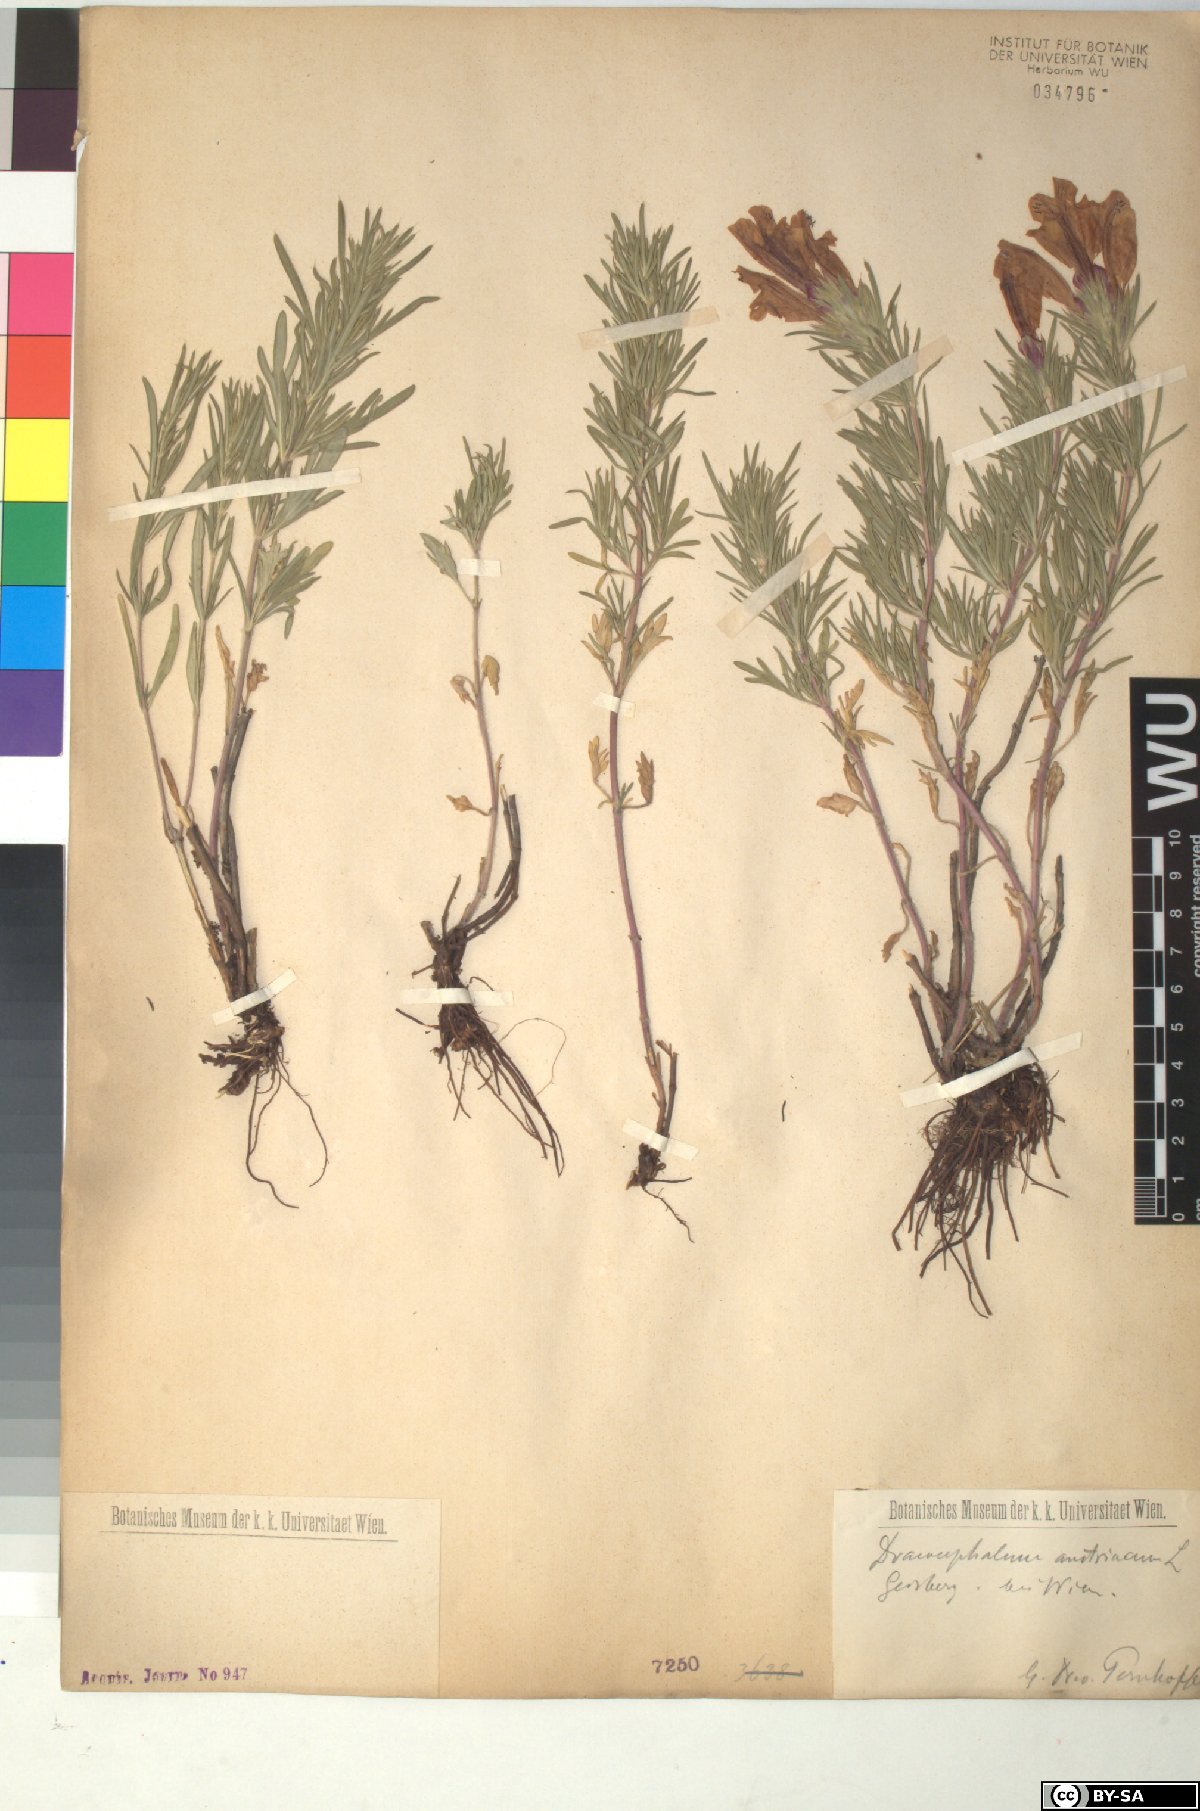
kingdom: Plantae
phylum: Tracheophyta
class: Magnoliopsida
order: Lamiales
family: Lamiaceae
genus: Dracocephalum
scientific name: Dracocephalum austriacum
